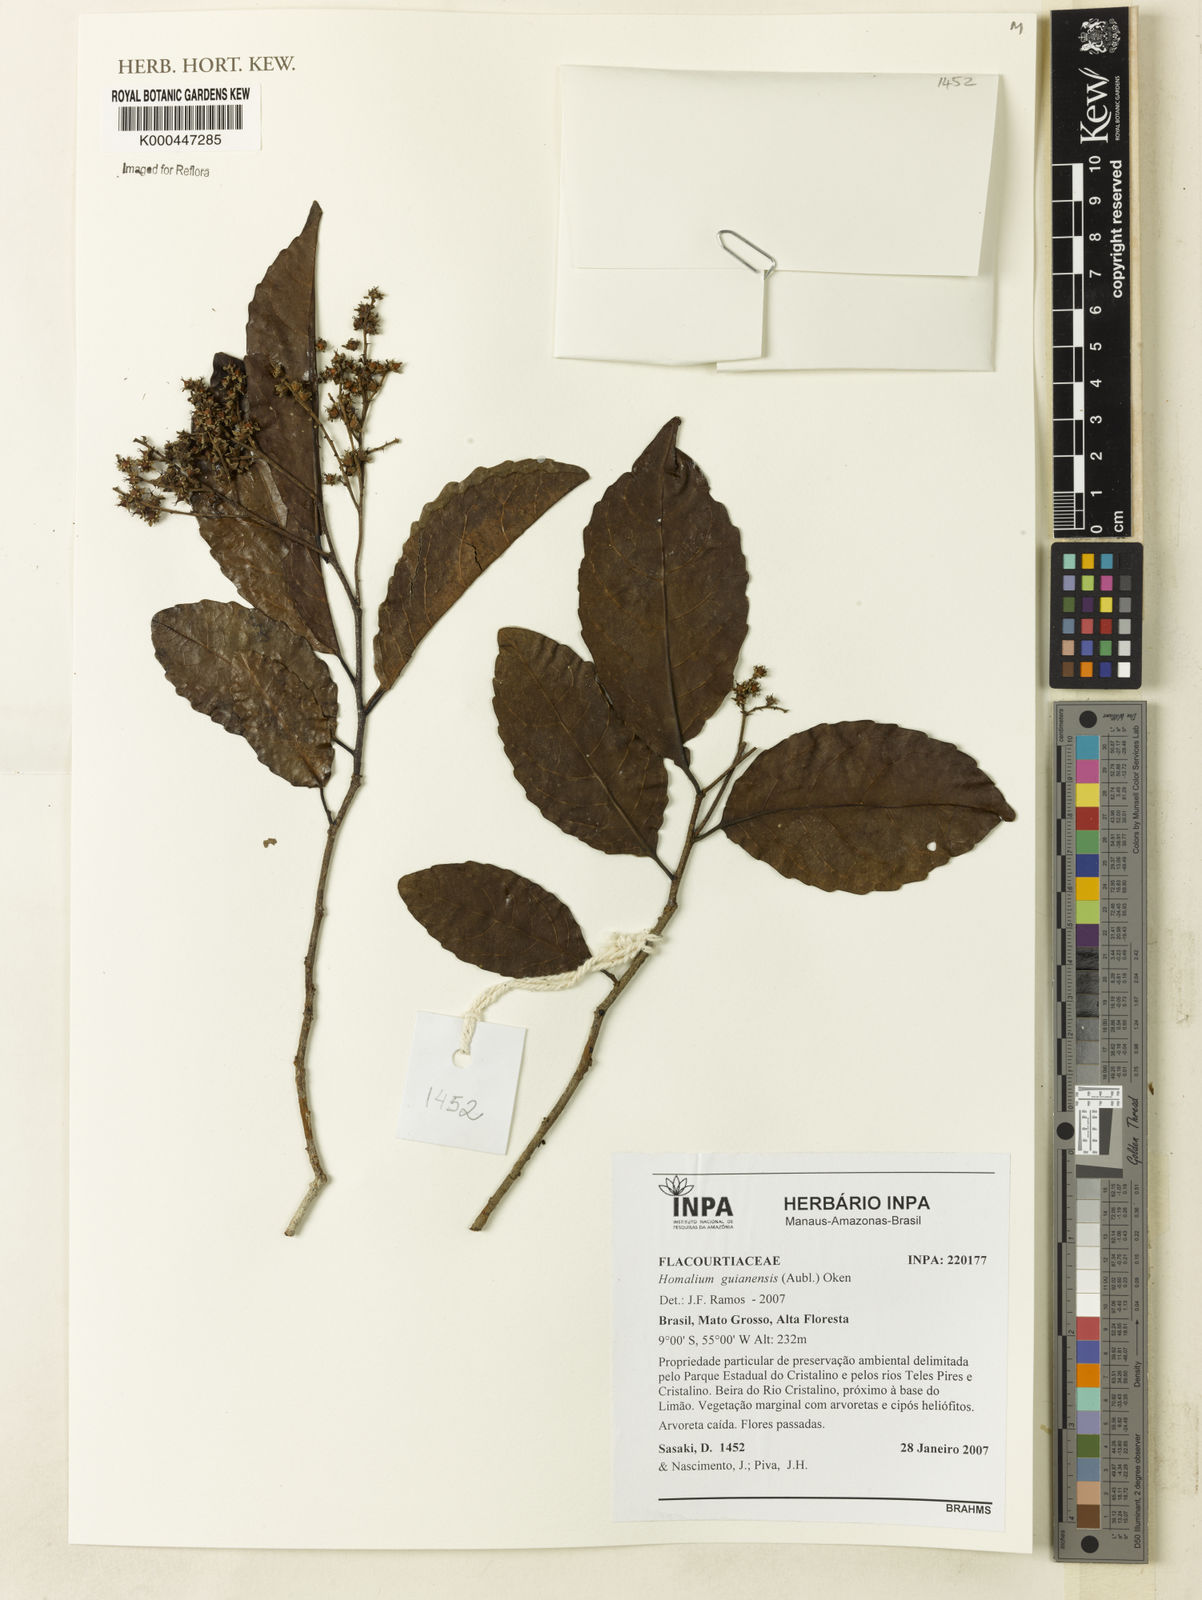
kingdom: Plantae
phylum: Tracheophyta
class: Magnoliopsida
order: Malpighiales
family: Salicaceae
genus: Homalium
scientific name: Homalium guianense
